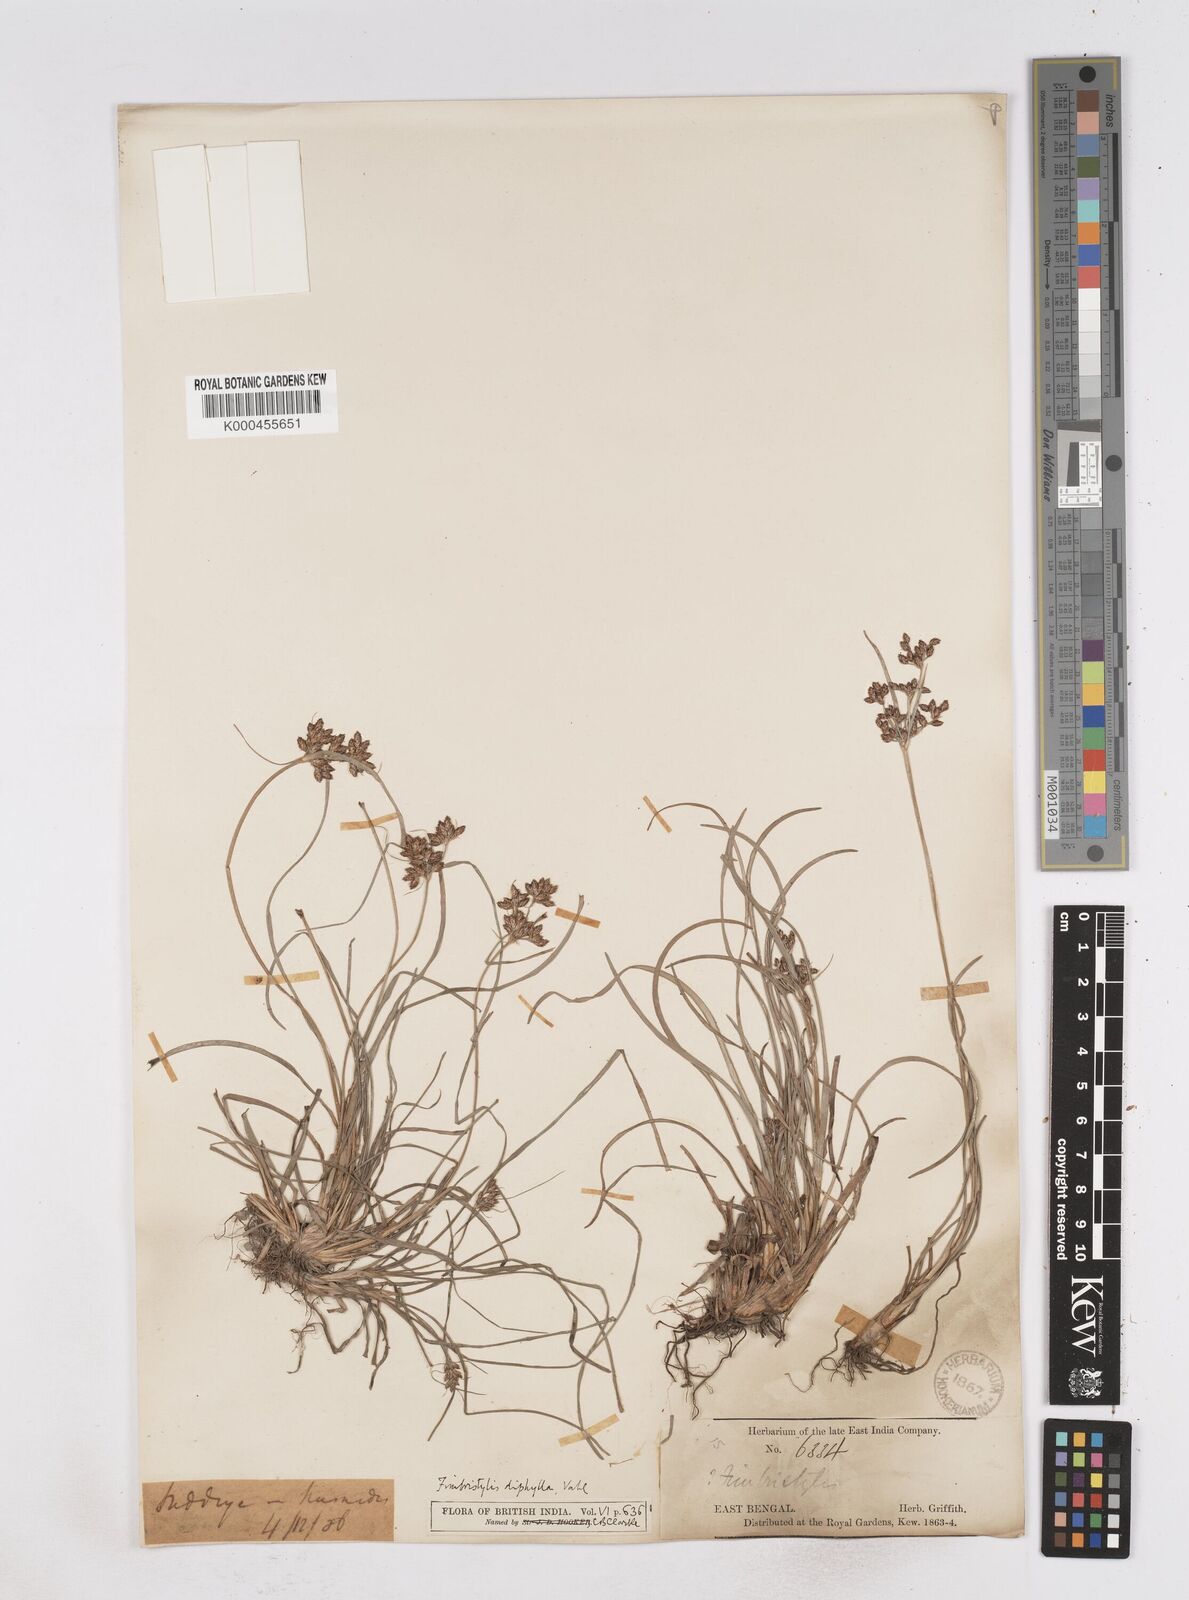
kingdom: Plantae
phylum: Tracheophyta
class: Liliopsida
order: Poales
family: Cyperaceae
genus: Fimbristylis
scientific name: Fimbristylis dichotoma
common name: Forked fimbry
